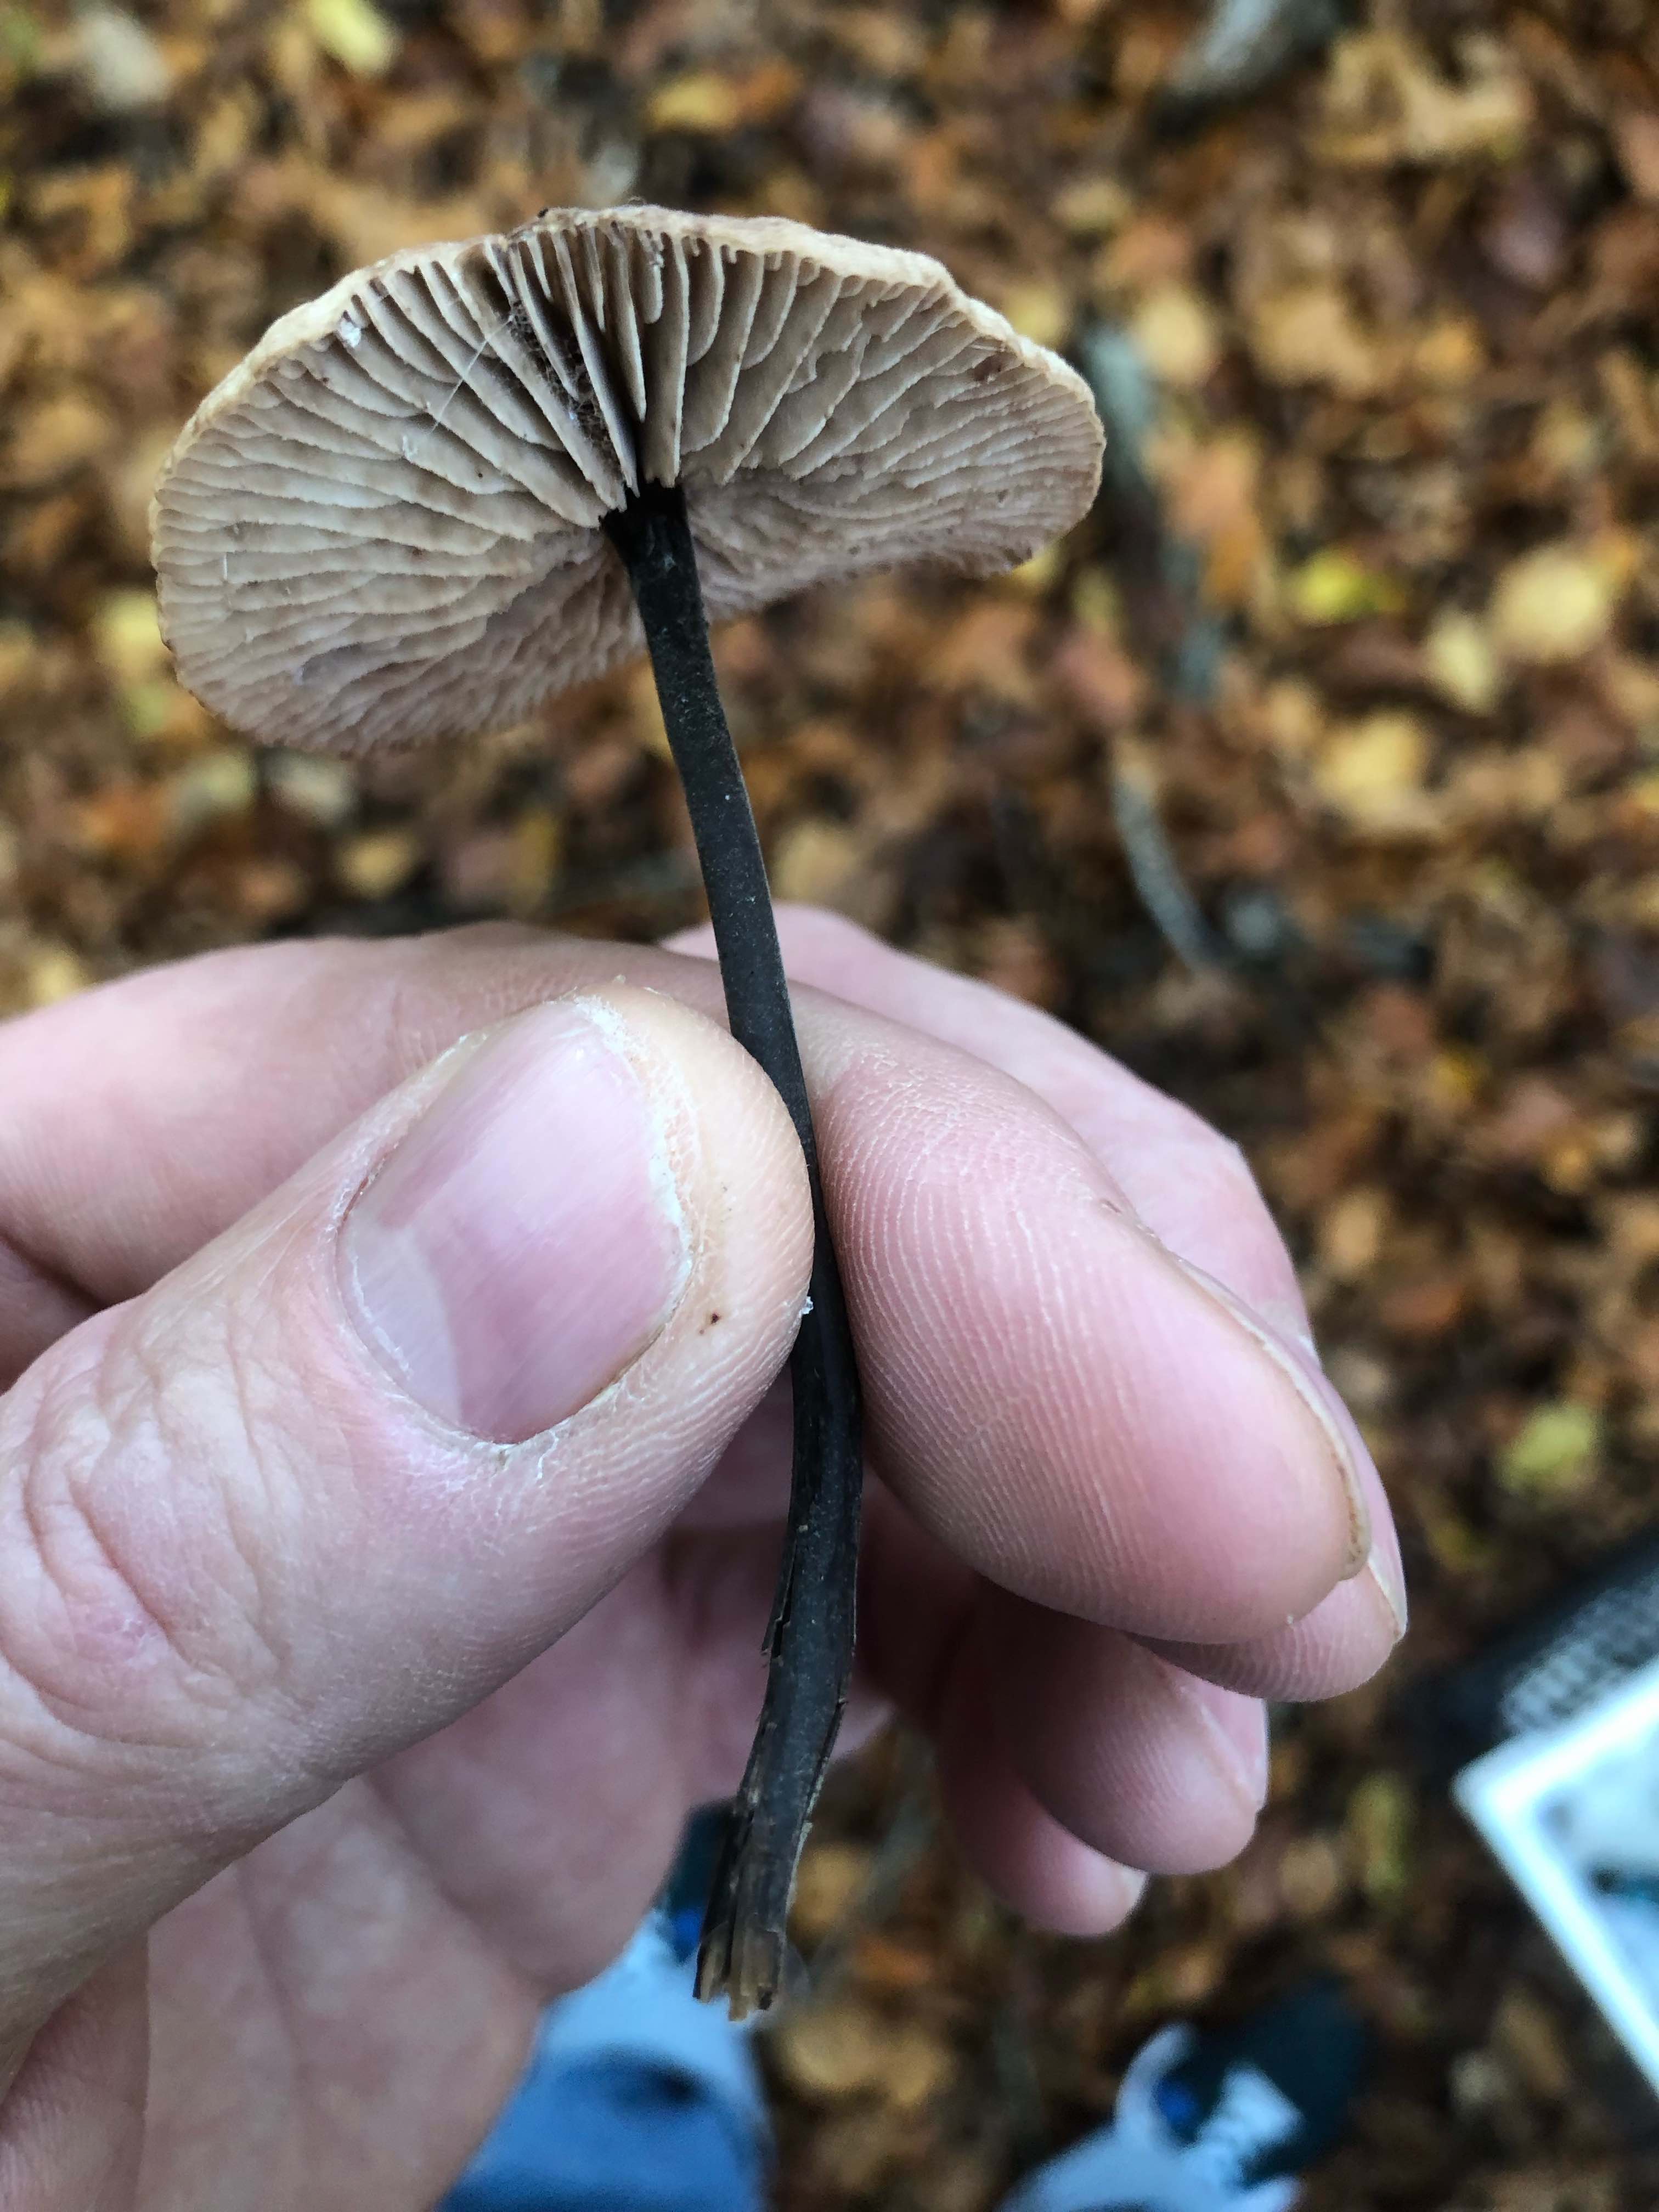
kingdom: Fungi
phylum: Basidiomycota
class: Agaricomycetes
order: Agaricales
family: Omphalotaceae
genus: Mycetinis
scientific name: Mycetinis alliaceus
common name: stor løghat
